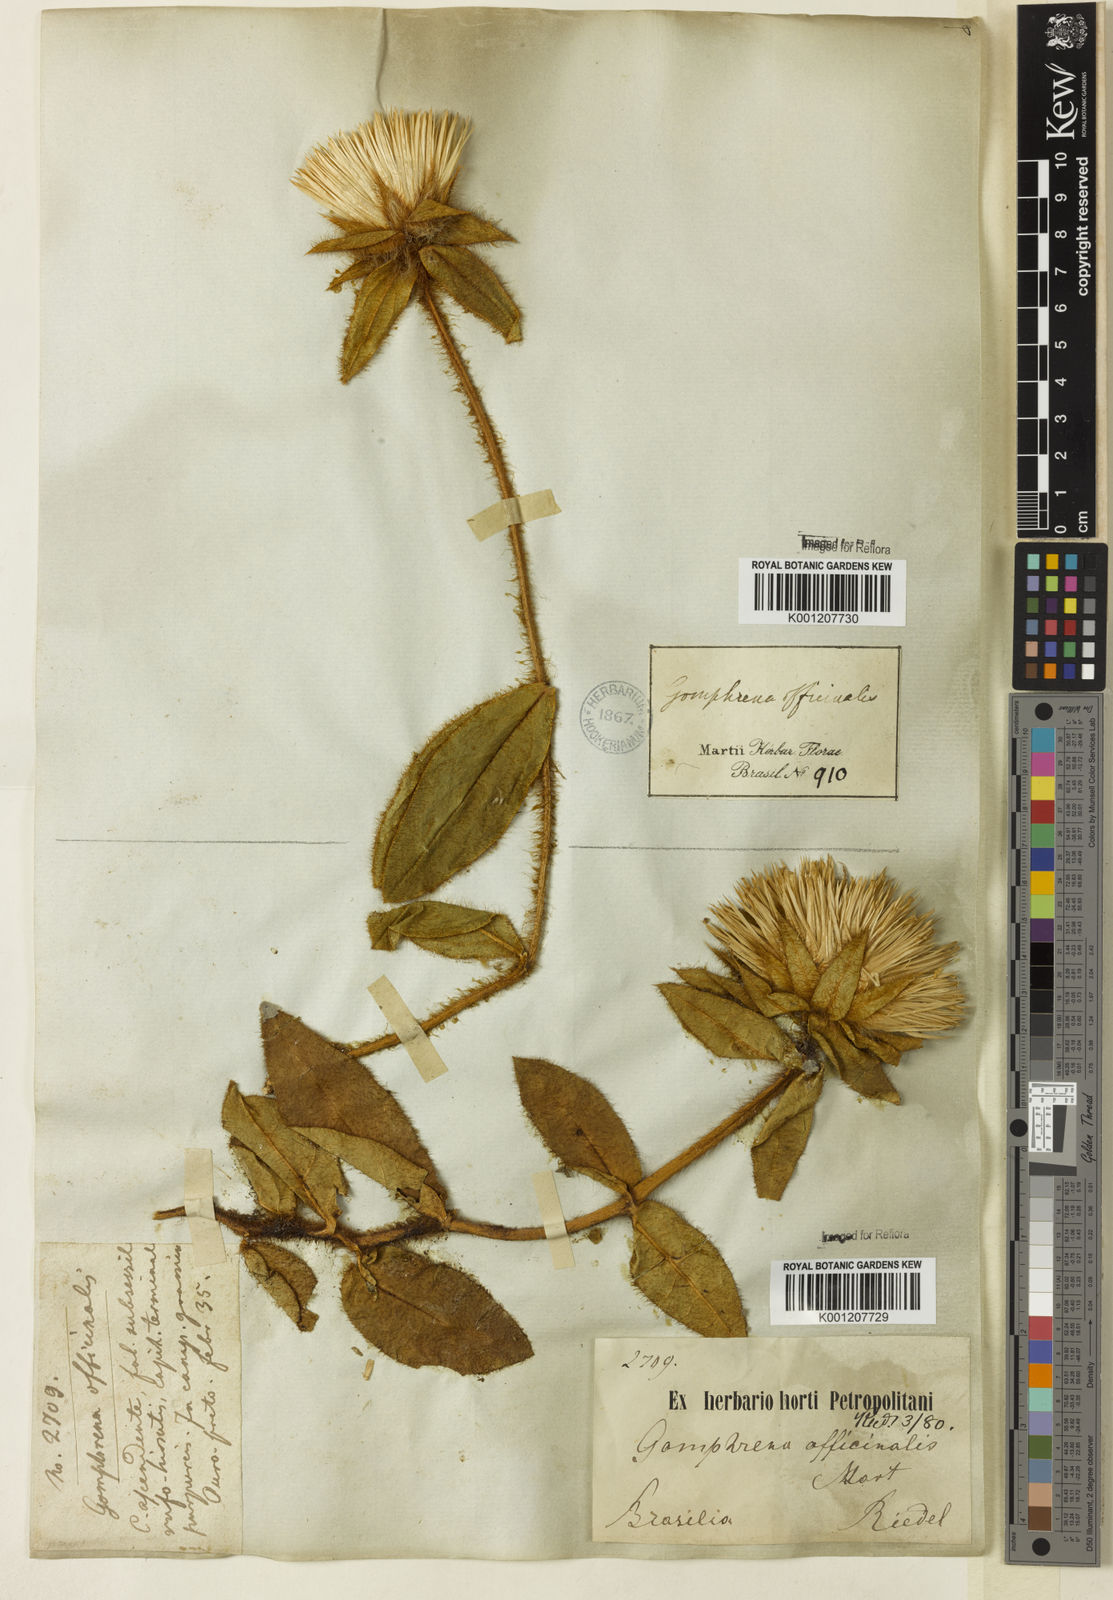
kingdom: Plantae
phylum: Tracheophyta
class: Magnoliopsida
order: Caryophyllales
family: Amaranthaceae
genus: Gomphrena
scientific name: Gomphrena arborescens
